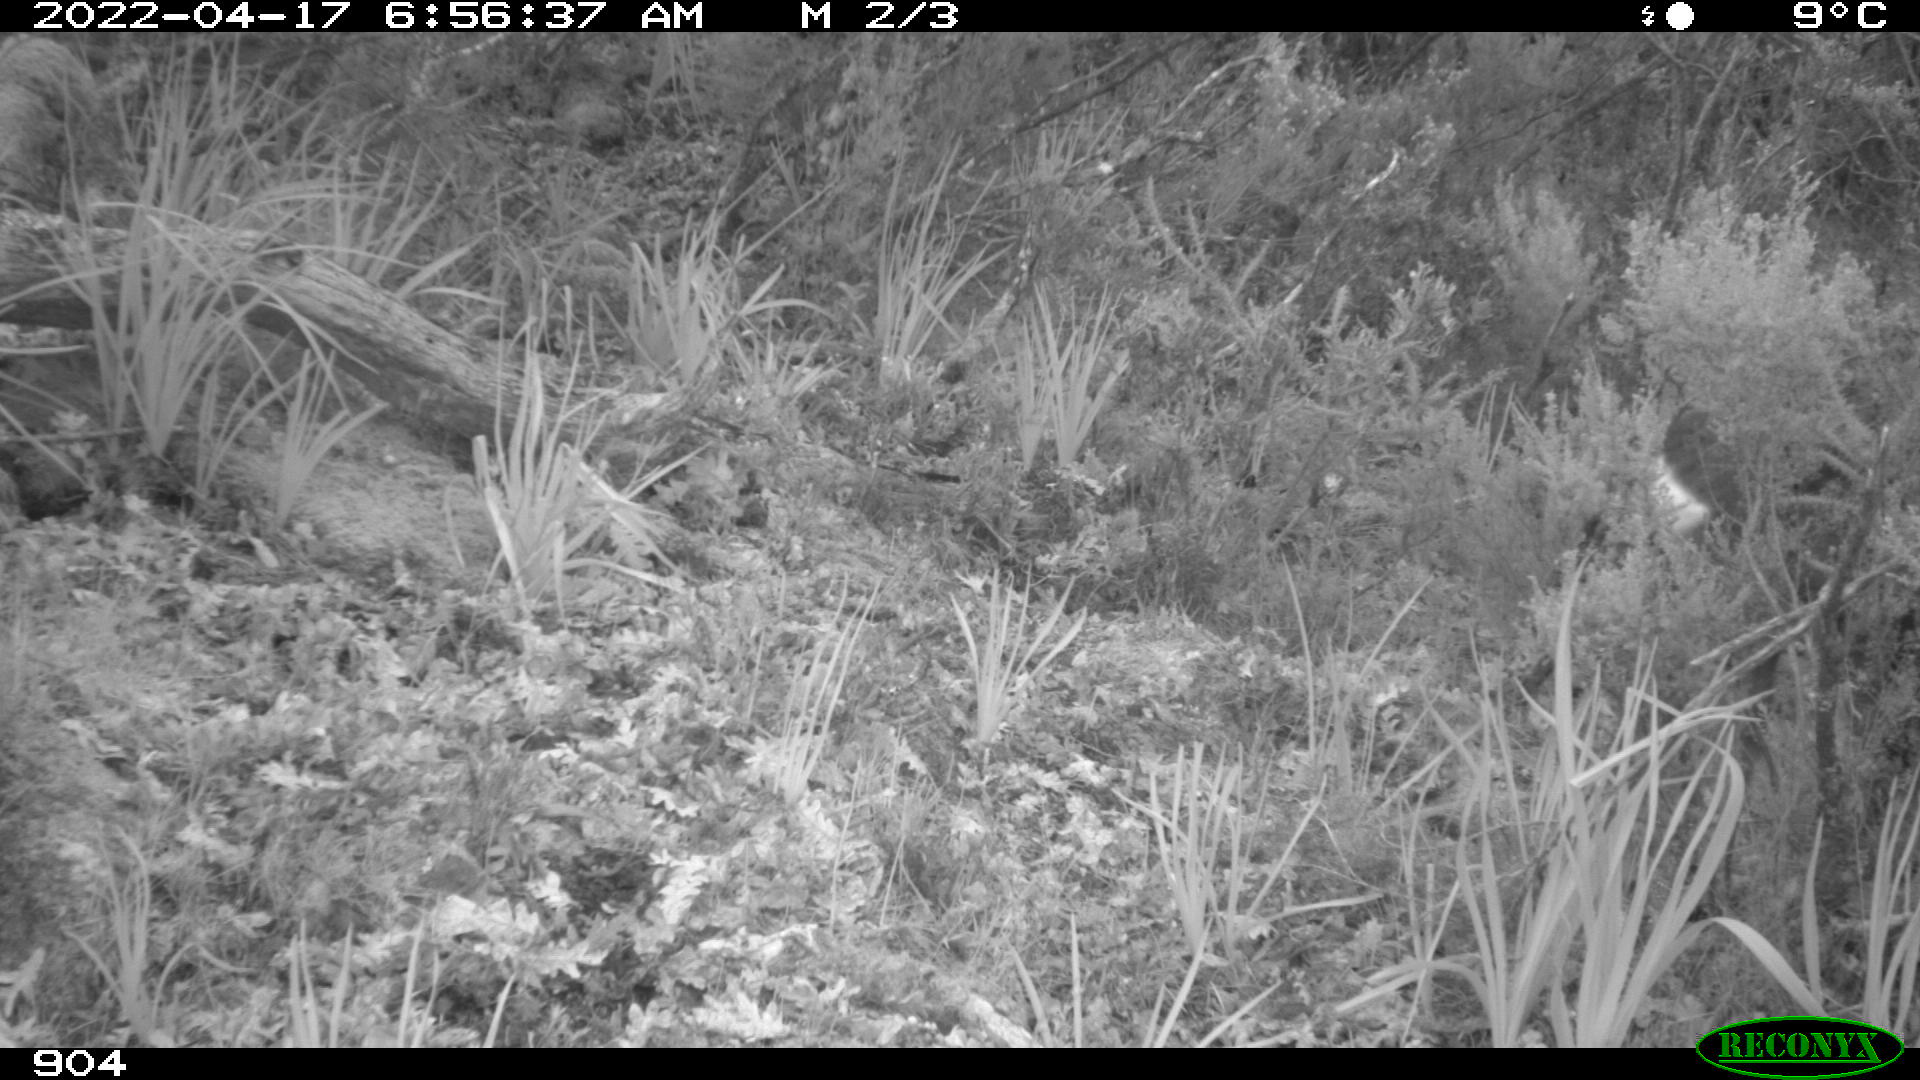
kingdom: Animalia
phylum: Chordata
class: Mammalia
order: Artiodactyla
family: Cervidae
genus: Capreolus
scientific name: Capreolus capreolus
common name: Western roe deer
